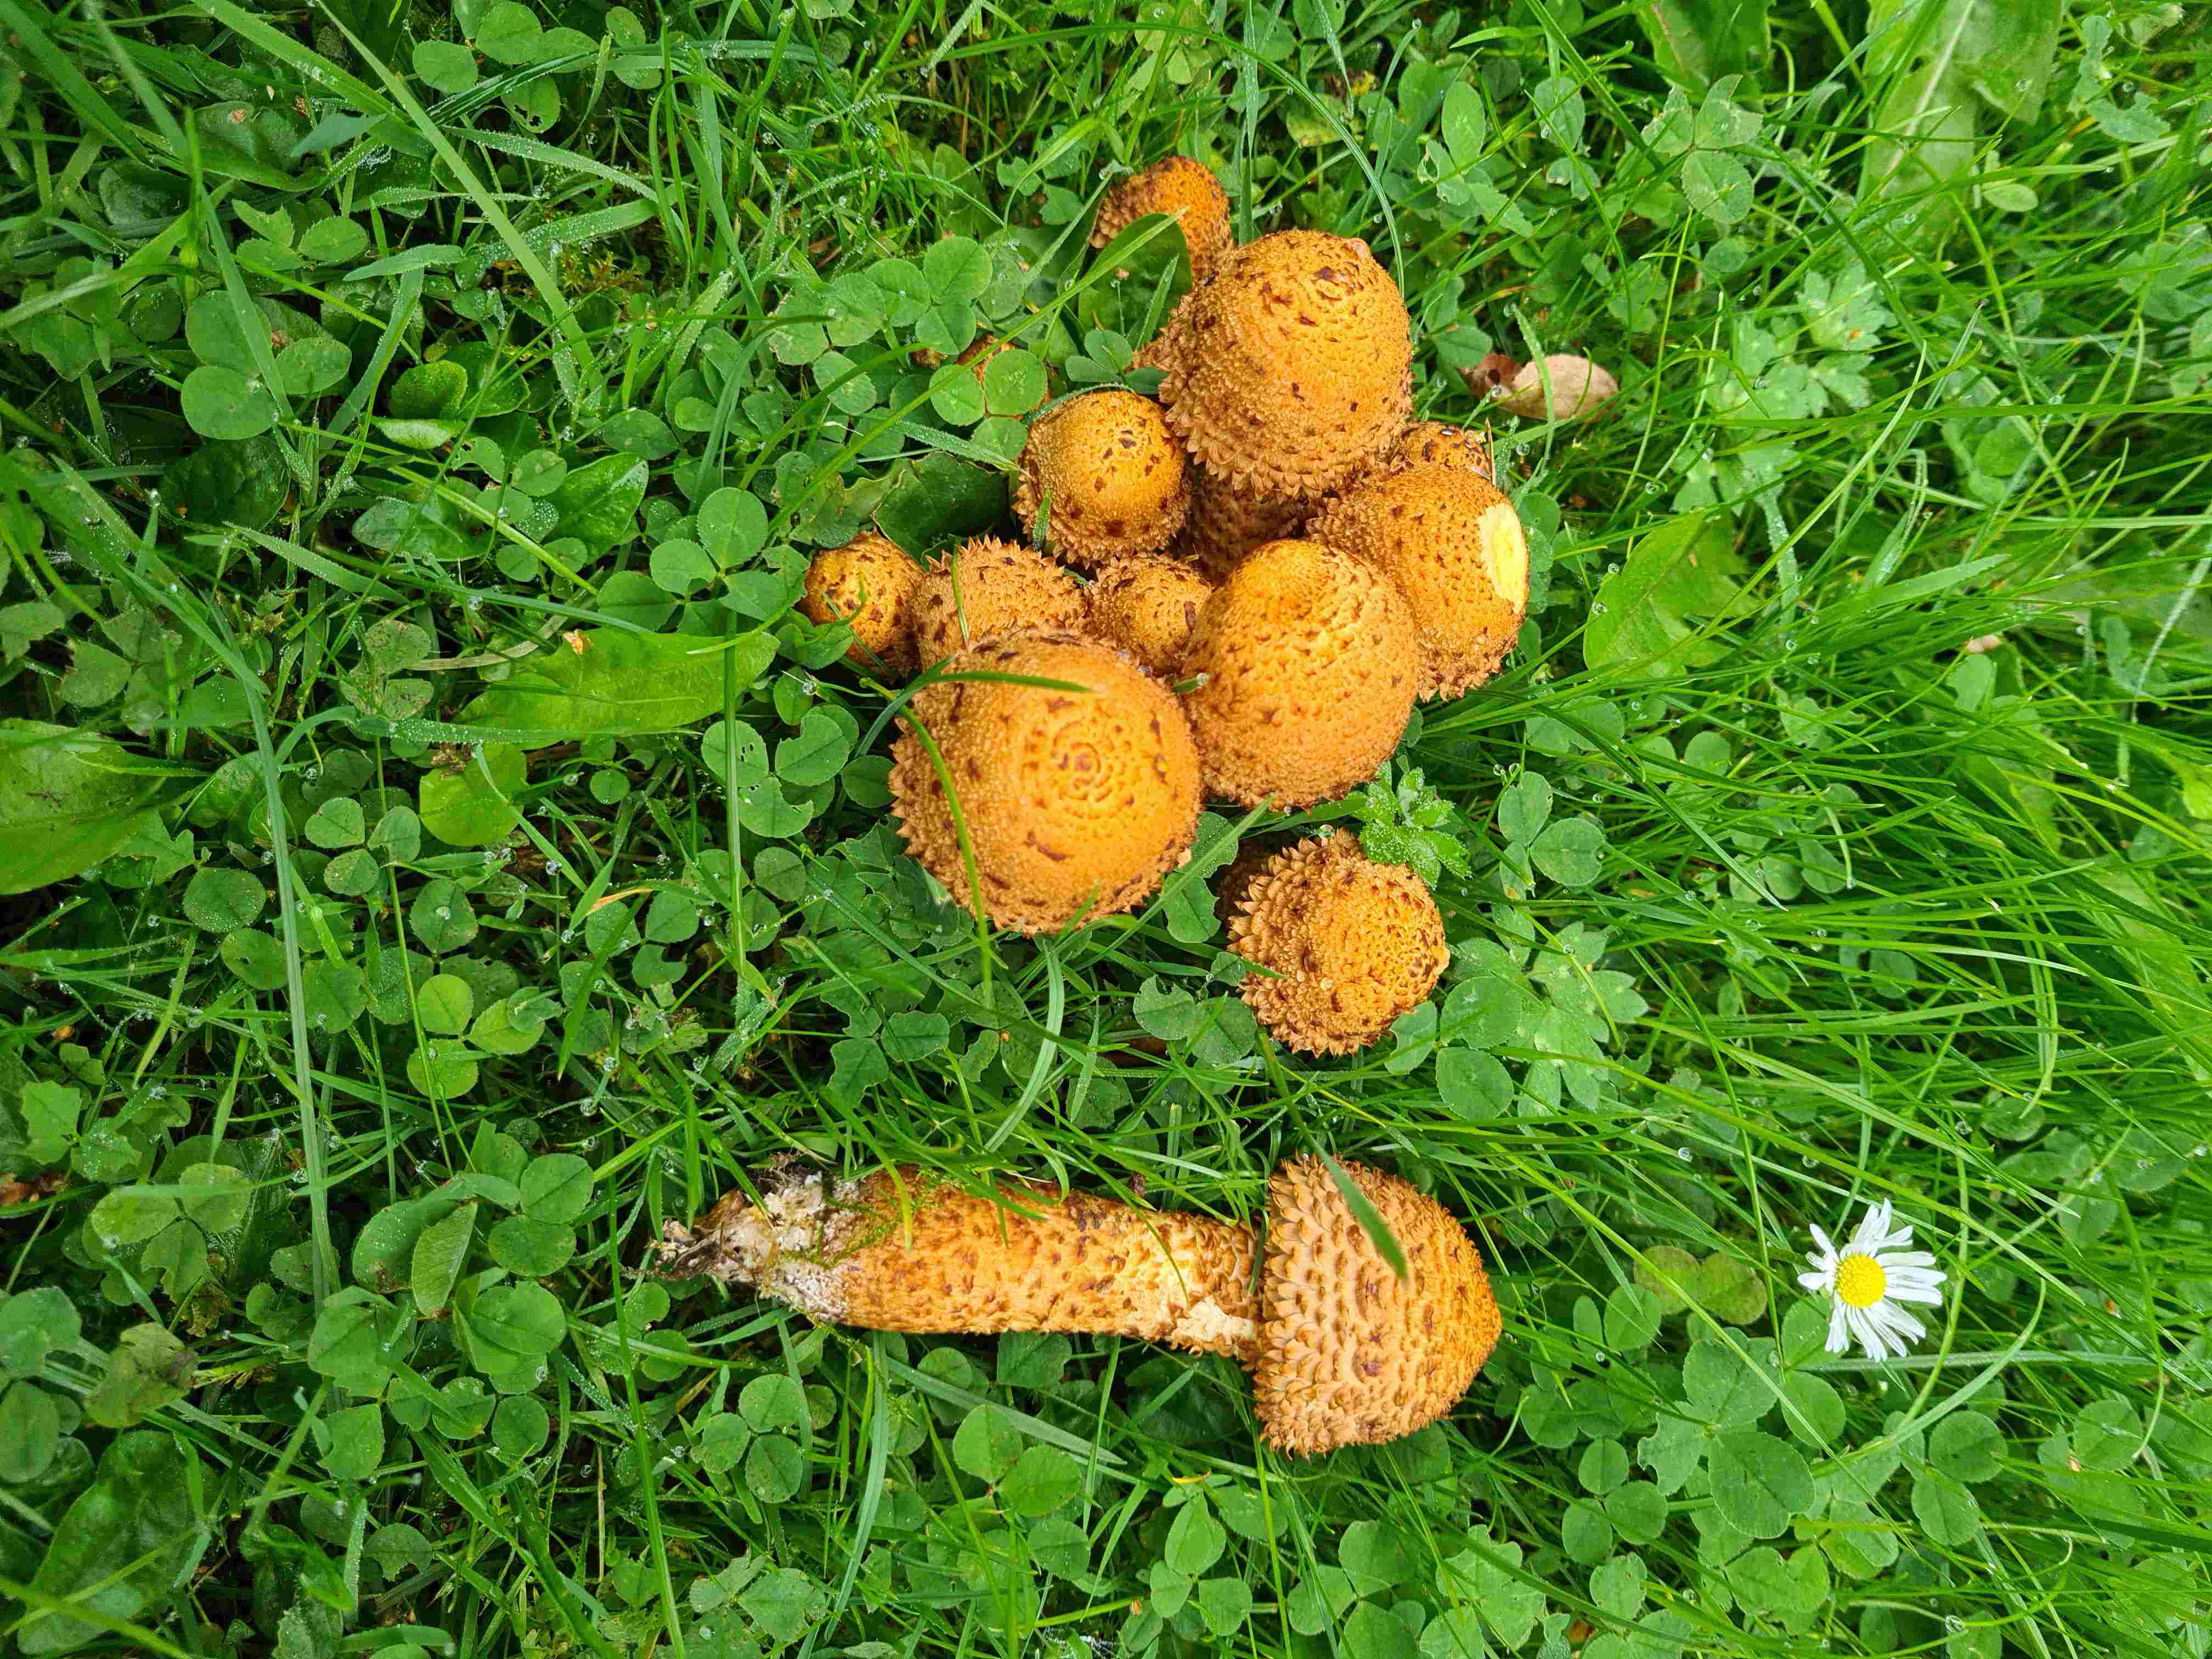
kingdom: Fungi
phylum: Basidiomycota
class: Agaricomycetes
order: Agaricales
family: Strophariaceae
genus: Pholiota
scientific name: Pholiota squarrosa
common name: krumskællet skælhat
